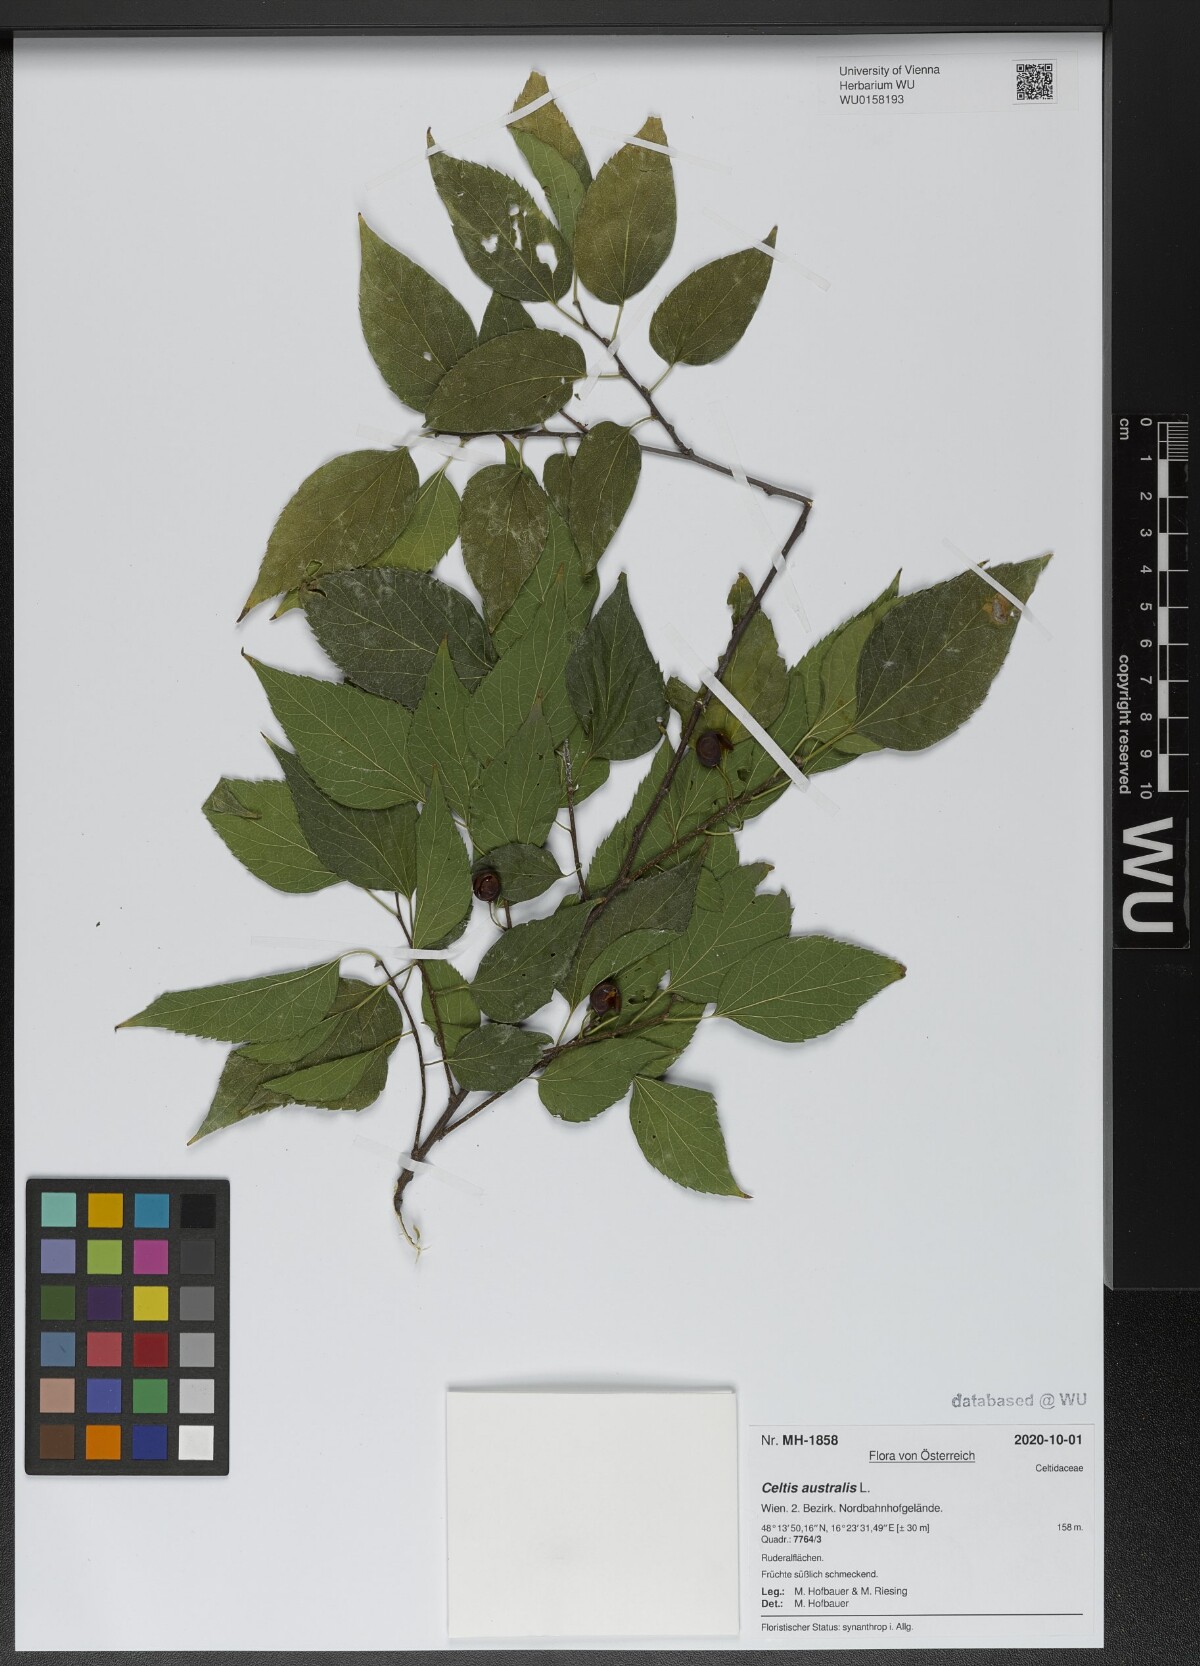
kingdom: Plantae
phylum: Tracheophyta
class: Magnoliopsida
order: Rosales
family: Cannabaceae
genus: Celtis
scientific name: Celtis australis
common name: European hackberry
